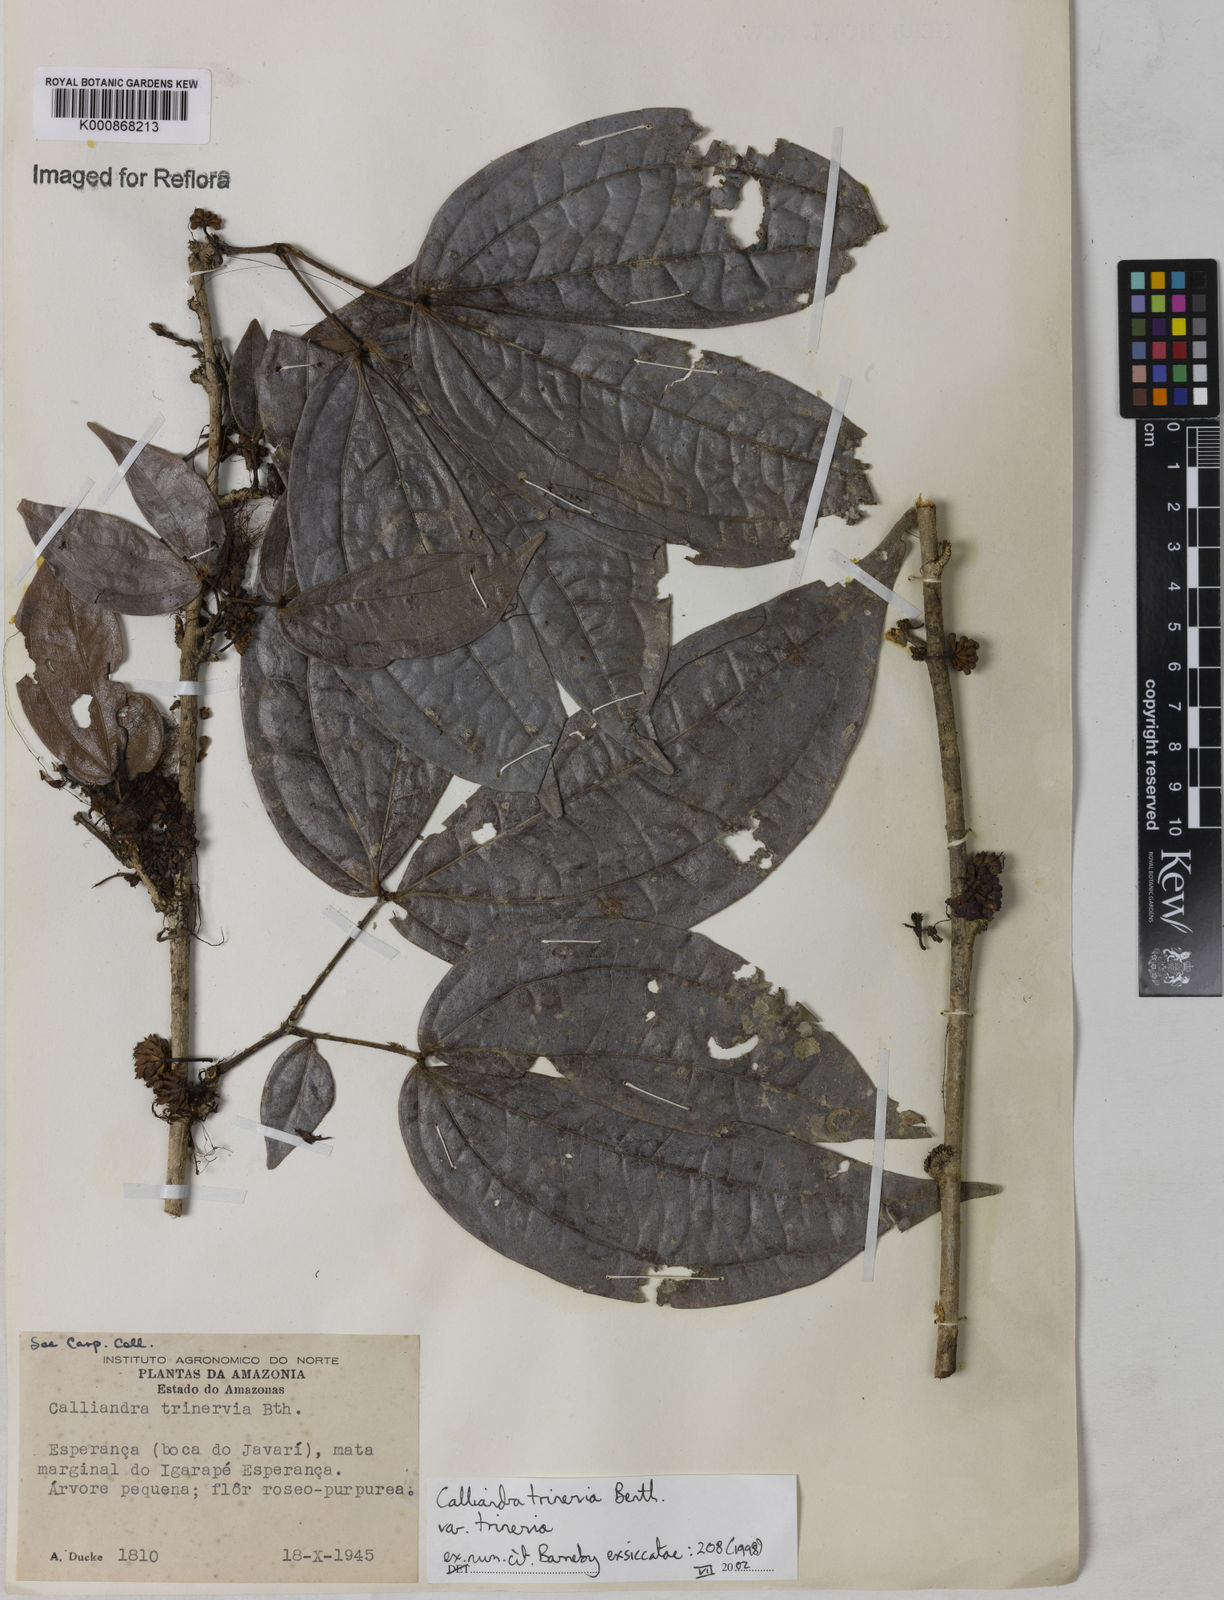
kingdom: Plantae
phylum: Tracheophyta
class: Magnoliopsida
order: Fabales
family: Fabaceae
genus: Calliandra
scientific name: Calliandra trinervia
